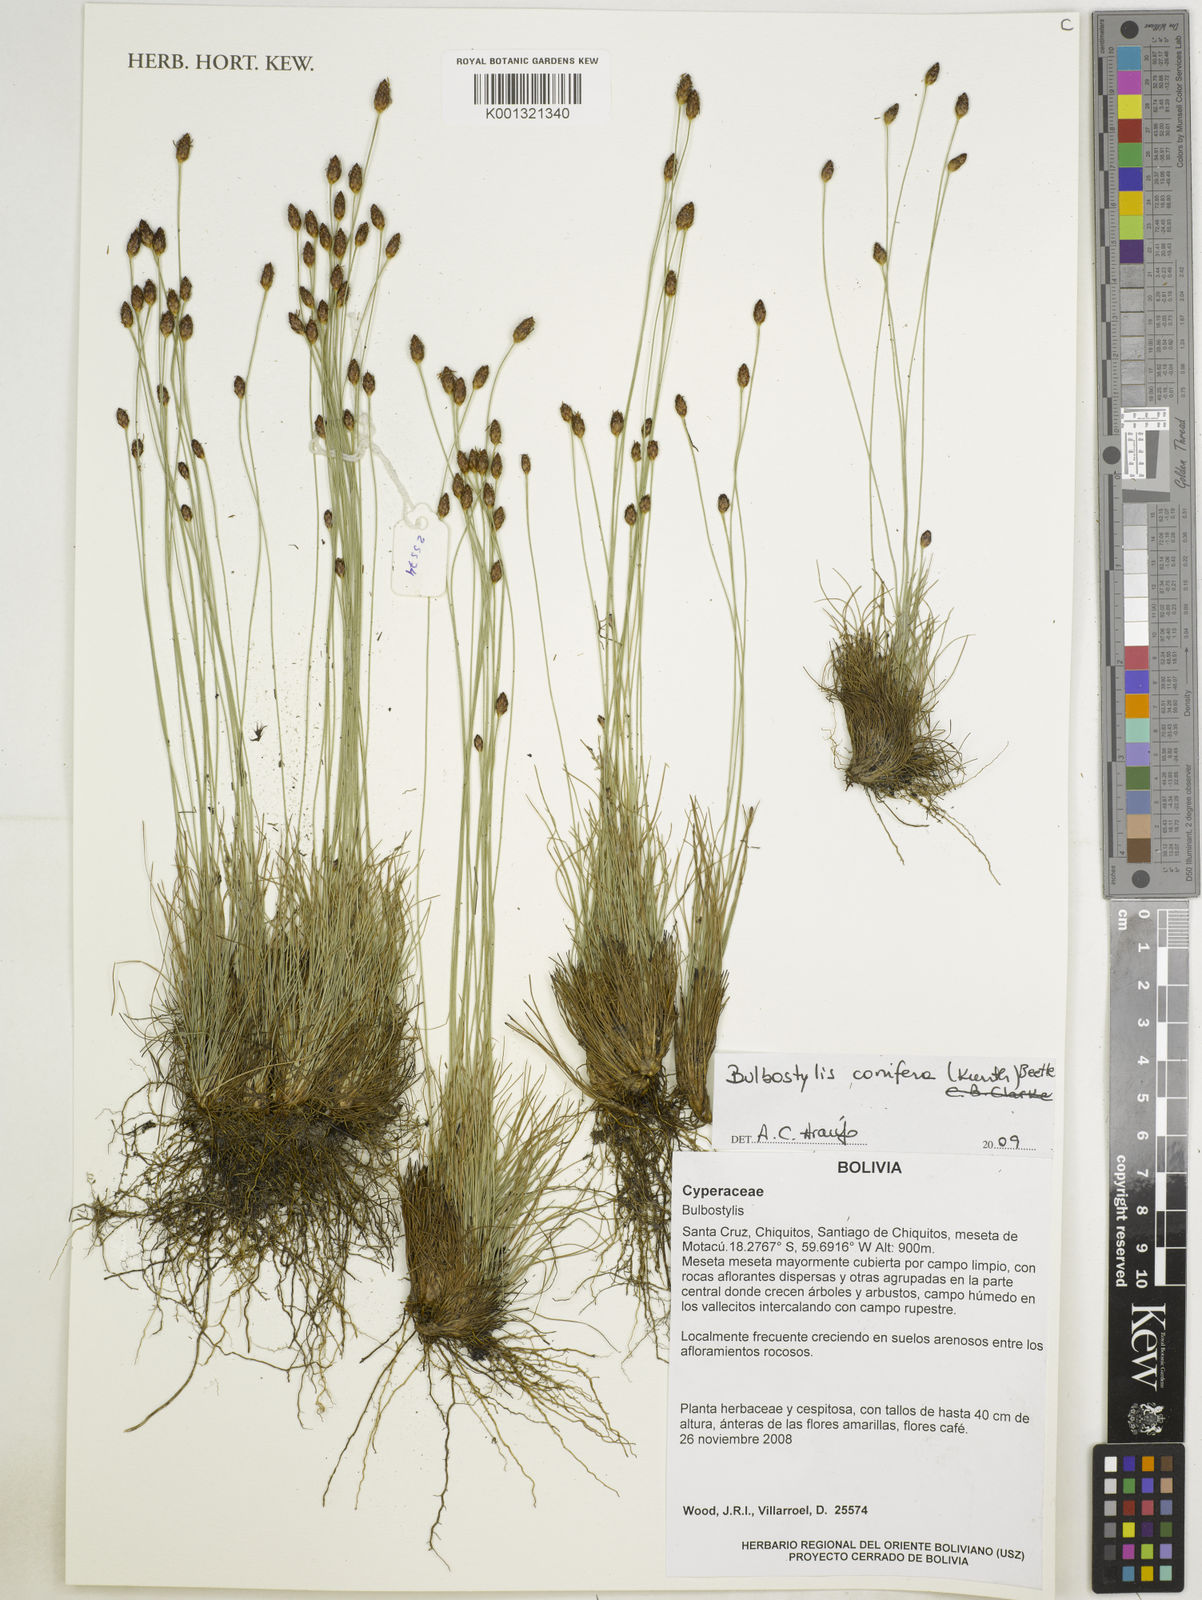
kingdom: Plantae
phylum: Tracheophyta
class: Liliopsida
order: Poales
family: Cyperaceae
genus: Bulbostylis
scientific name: Bulbostylis conifera
